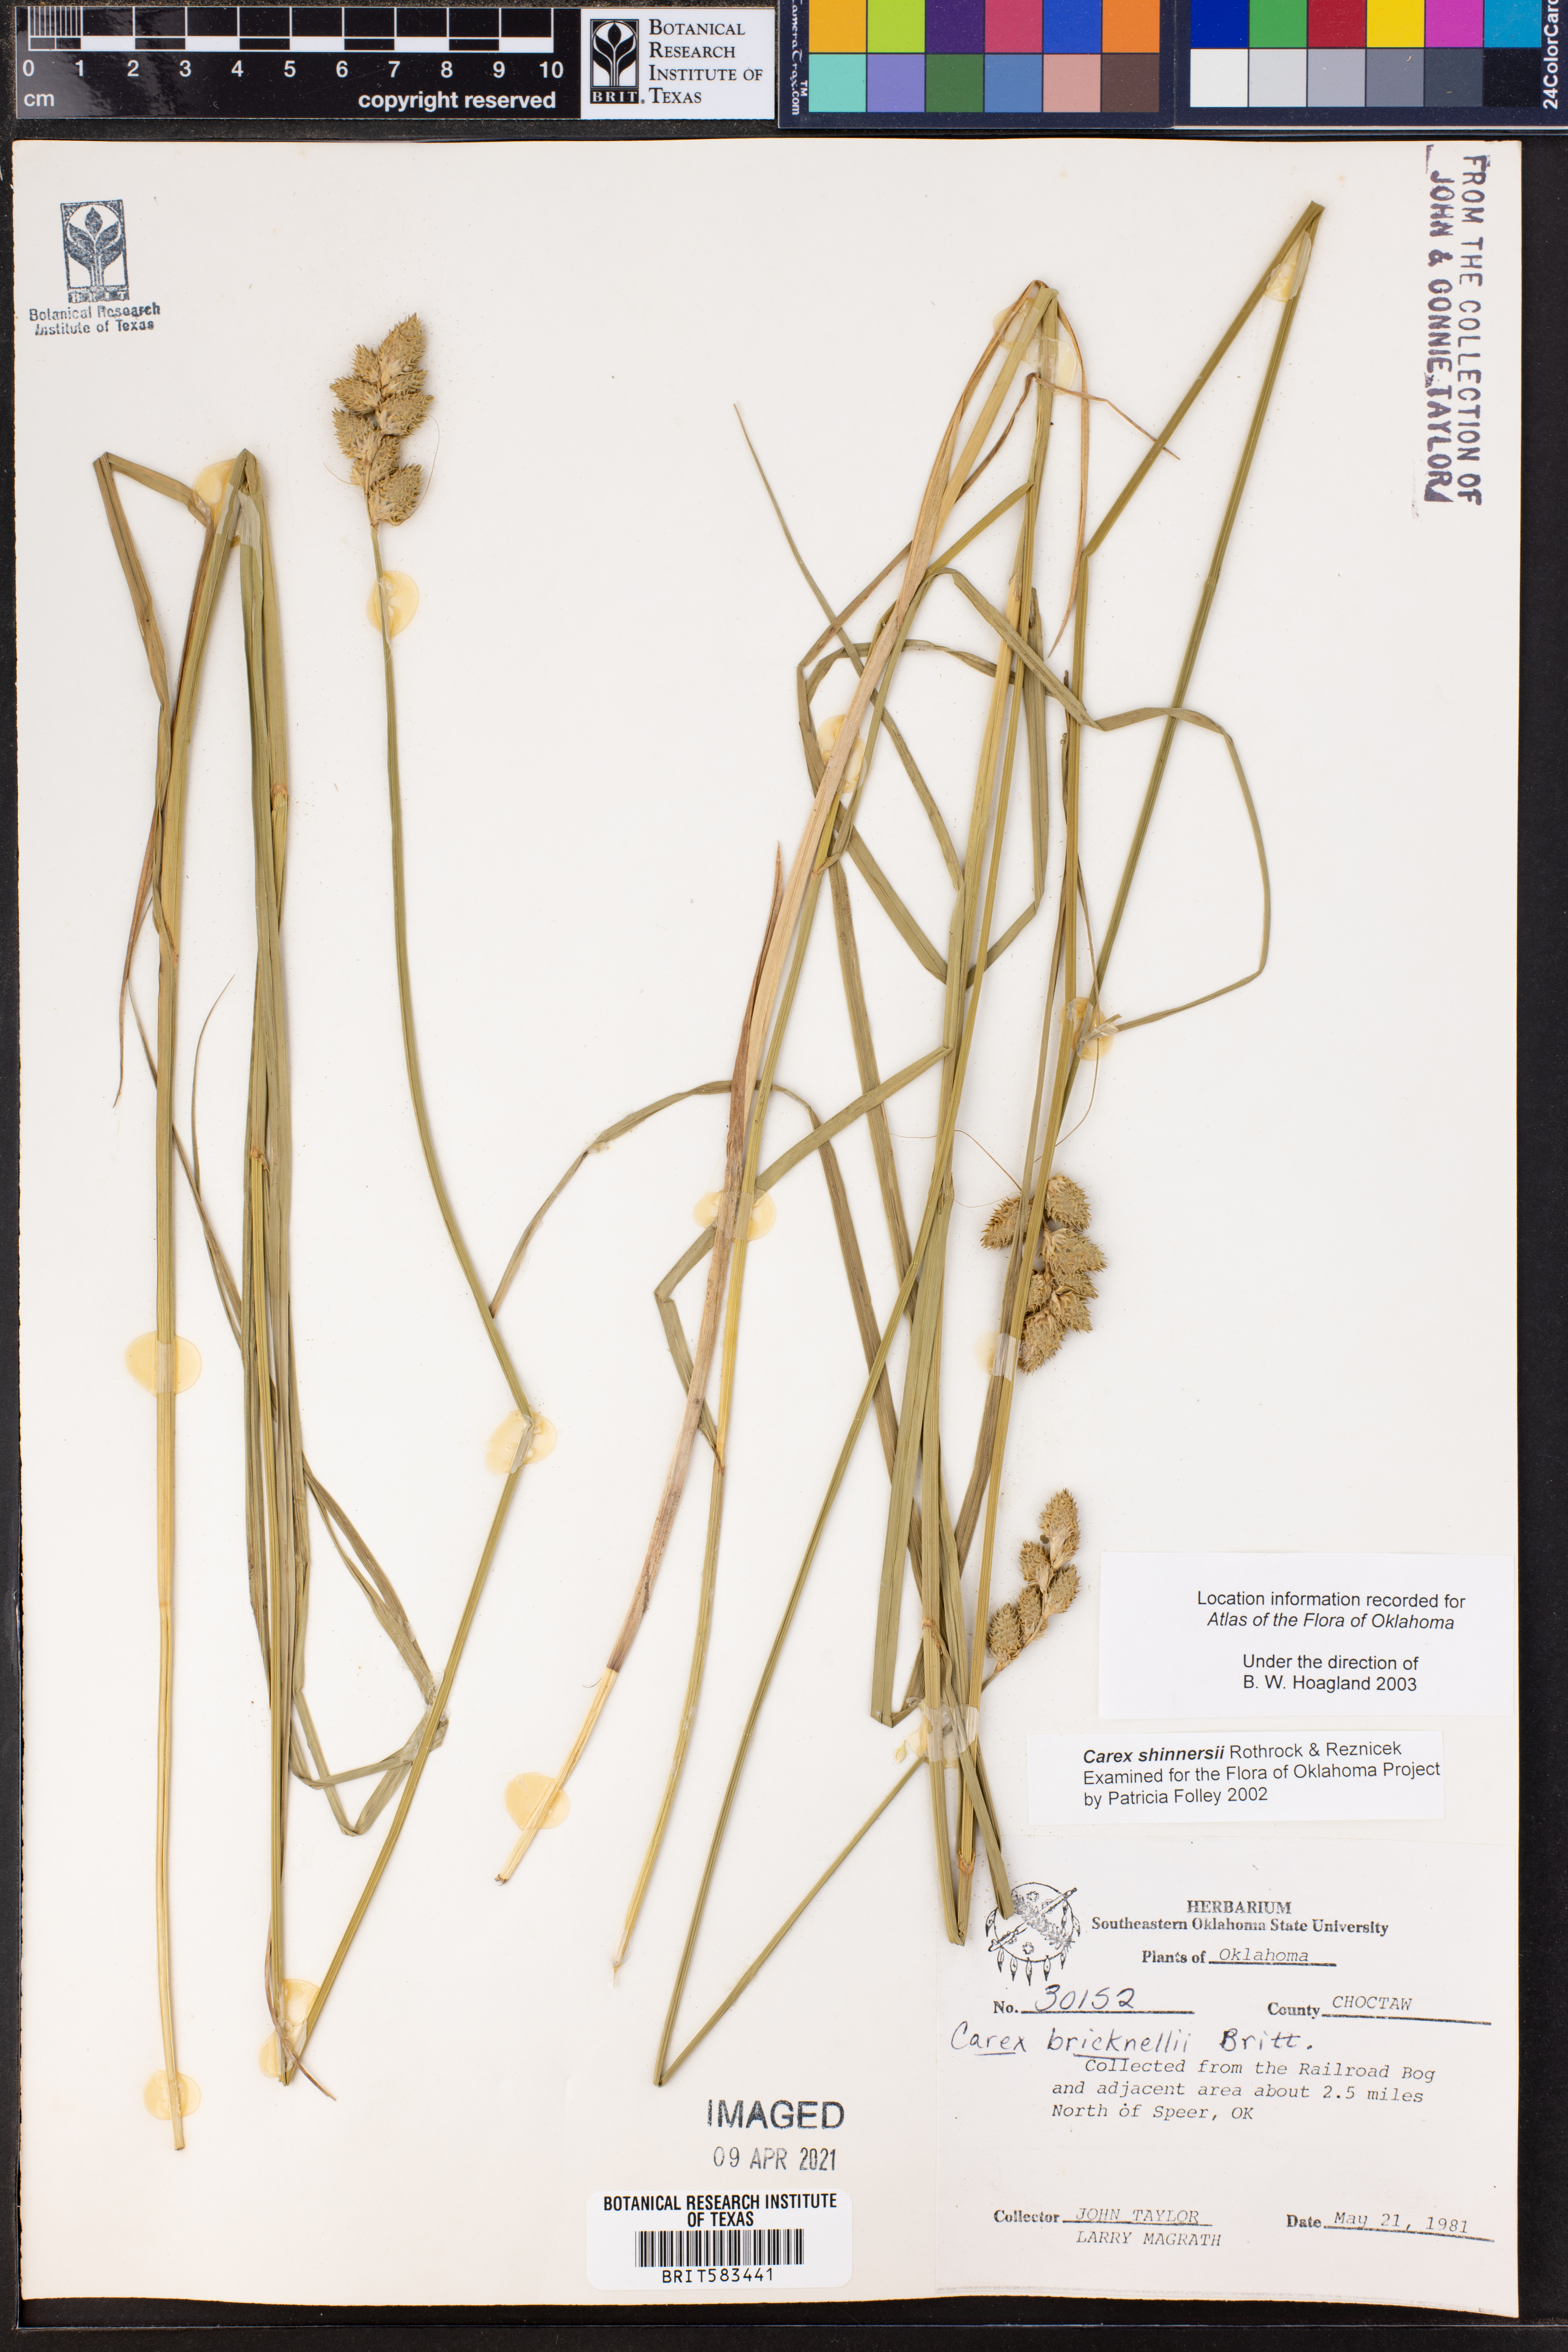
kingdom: Plantae
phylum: Tracheophyta
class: Liliopsida
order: Poales
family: Cyperaceae
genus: Carex
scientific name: Carex shinnersii
